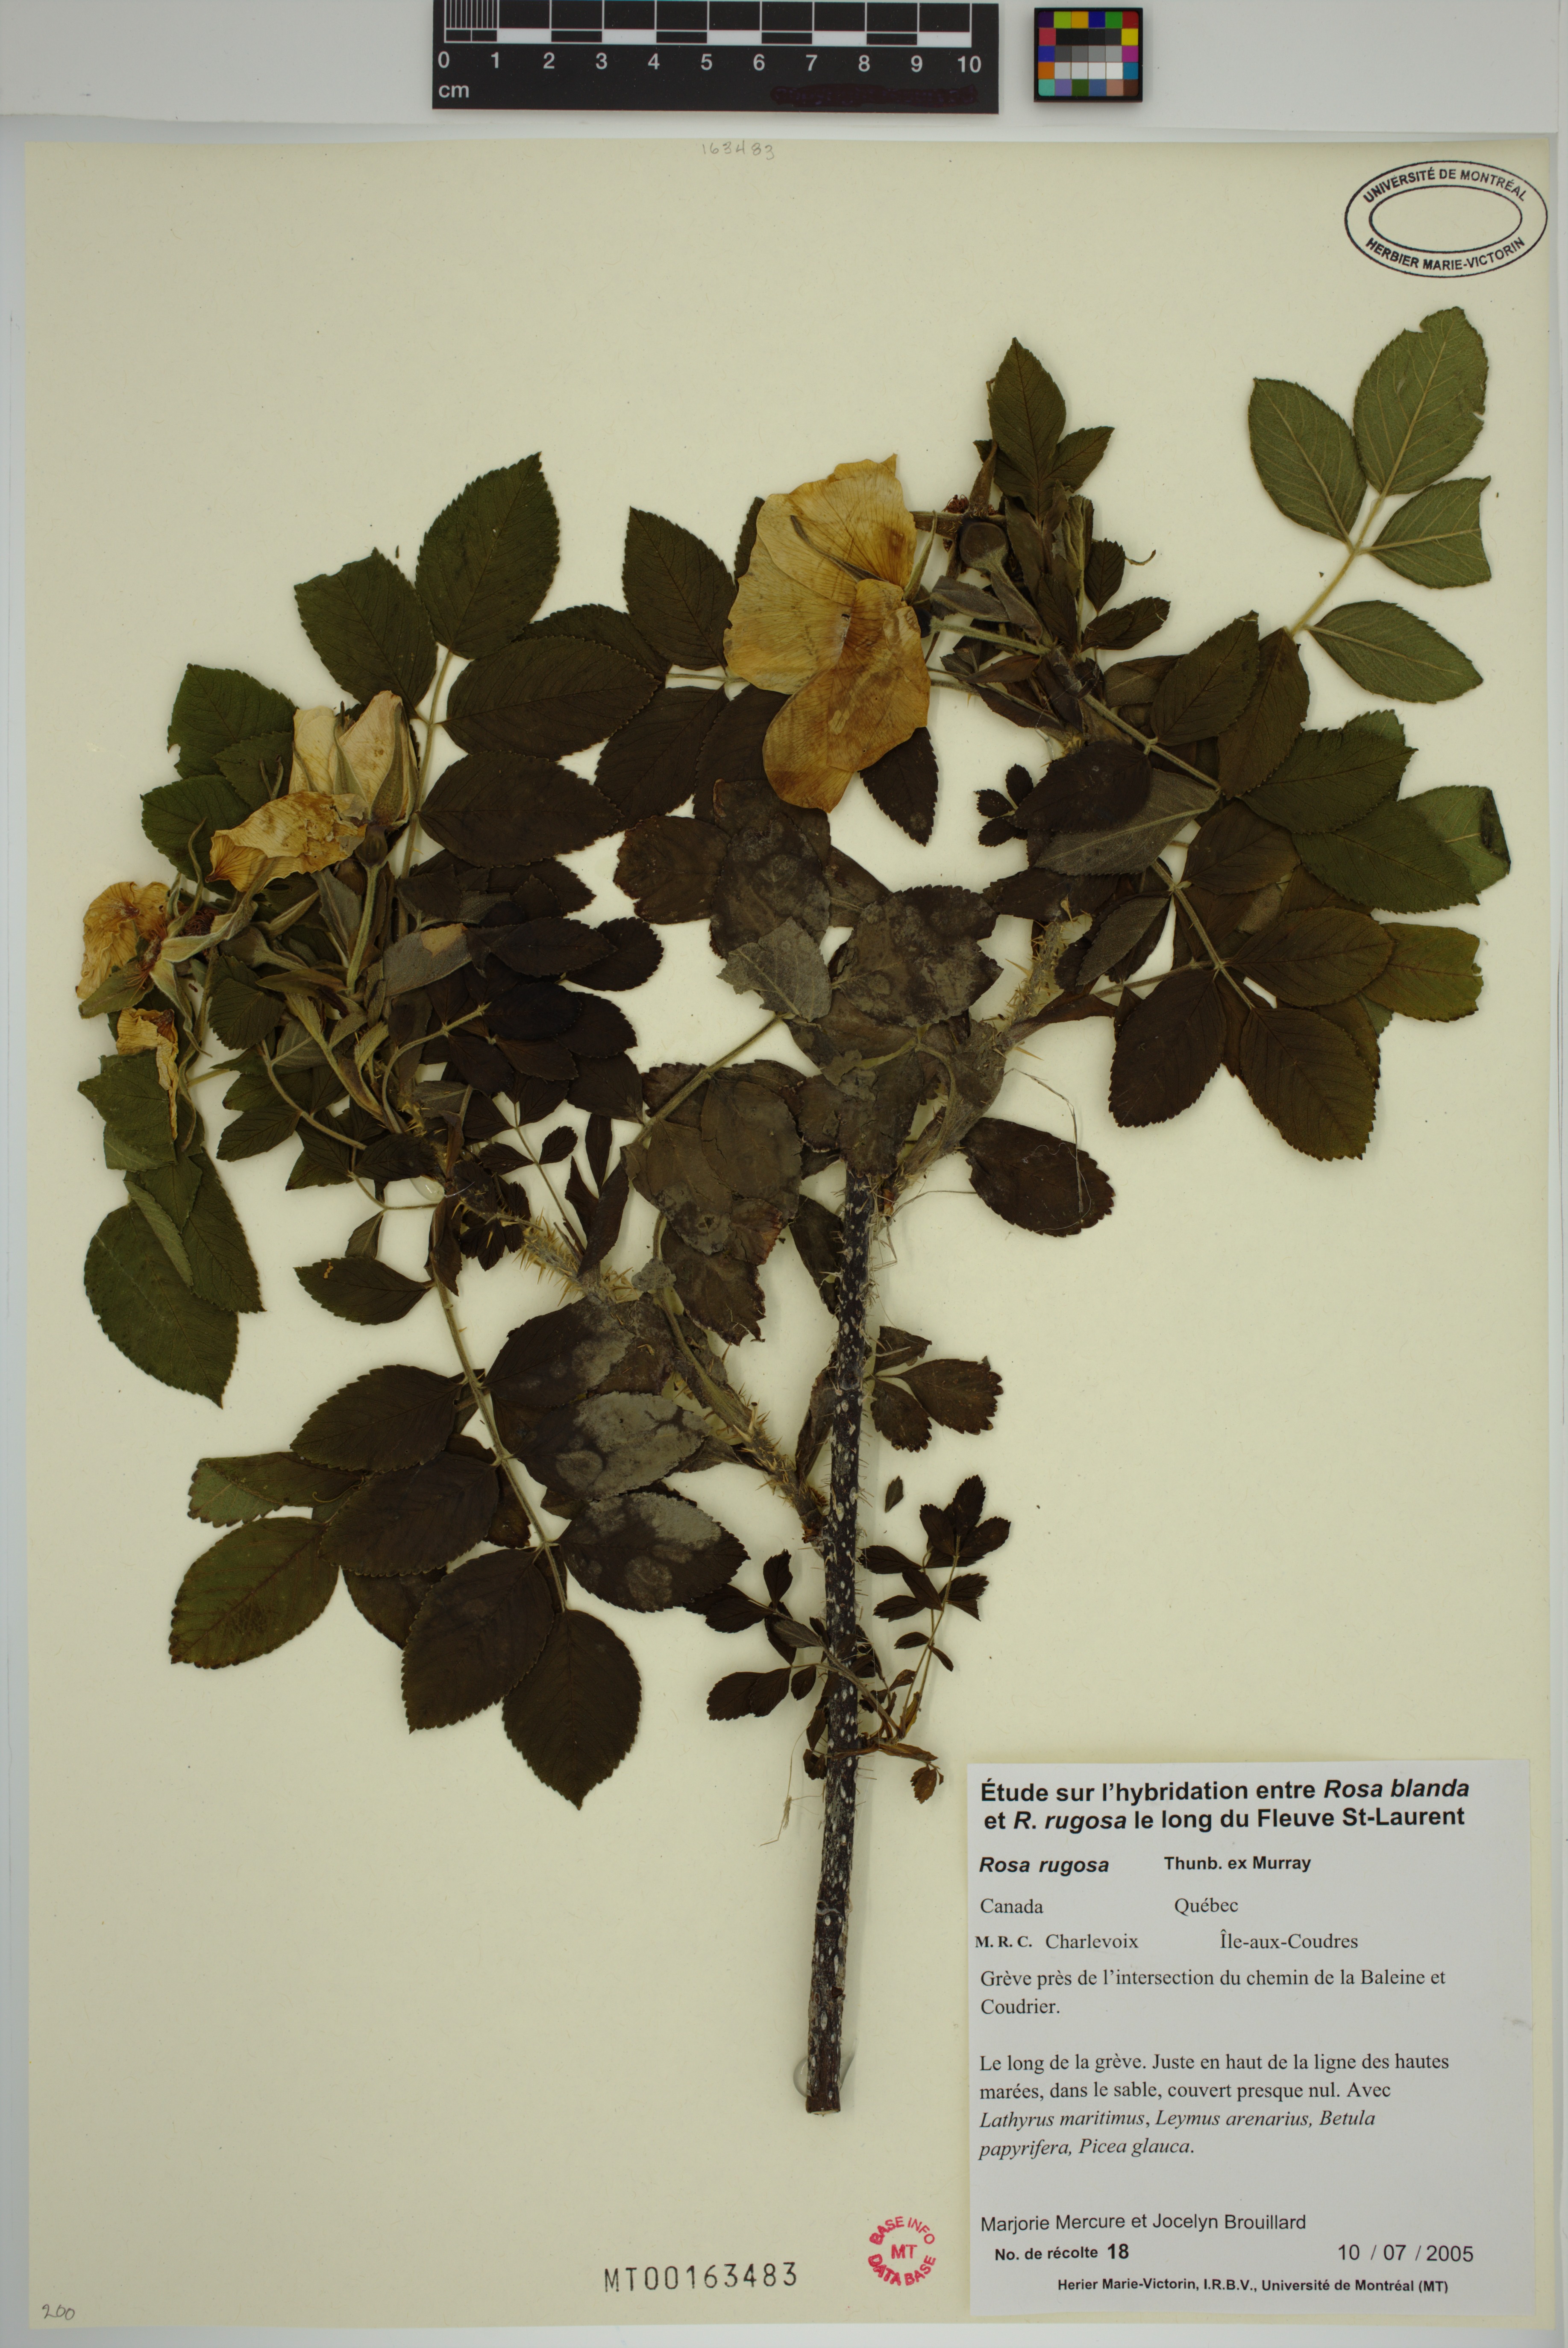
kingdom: Plantae
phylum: Tracheophyta
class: Magnoliopsida
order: Rosales
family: Rosaceae
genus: Rosa
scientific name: Rosa rugosa
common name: Japanese rose
